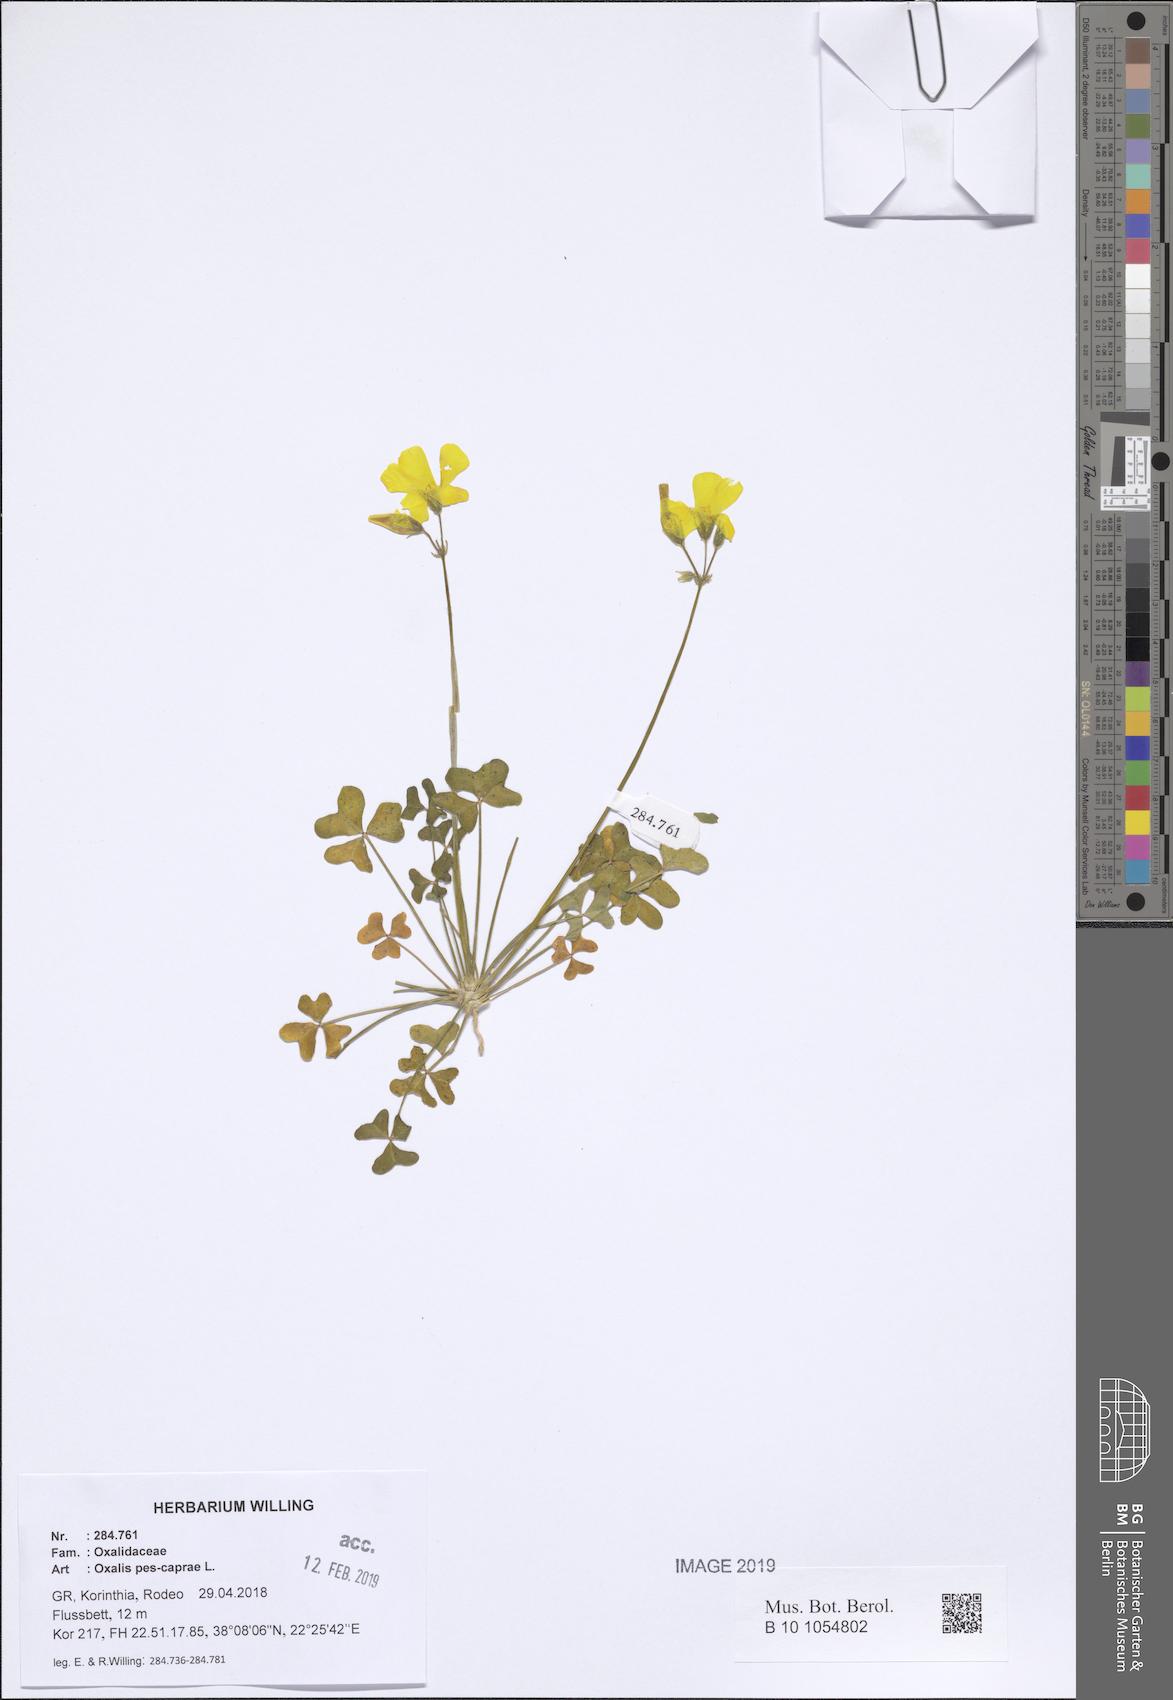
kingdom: Plantae
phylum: Tracheophyta
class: Magnoliopsida
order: Oxalidales
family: Oxalidaceae
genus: Oxalis
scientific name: Oxalis pes-caprae
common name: Bermuda-buttercup
